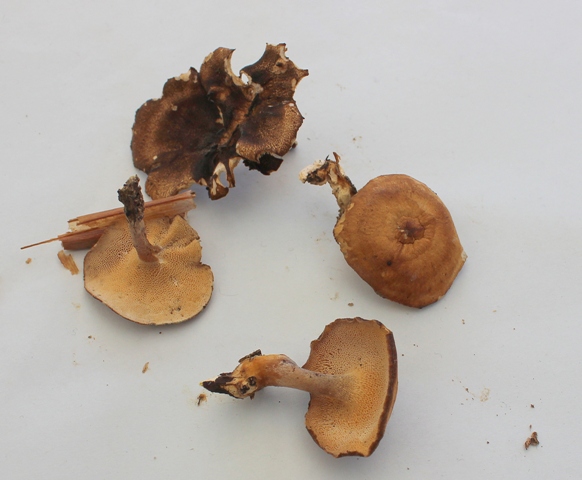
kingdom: Fungi
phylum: Basidiomycota
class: Agaricomycetes
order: Polyporales
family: Polyporaceae
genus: Lentinus
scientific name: Lentinus brumalis
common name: vinter-stilkporesvamp
